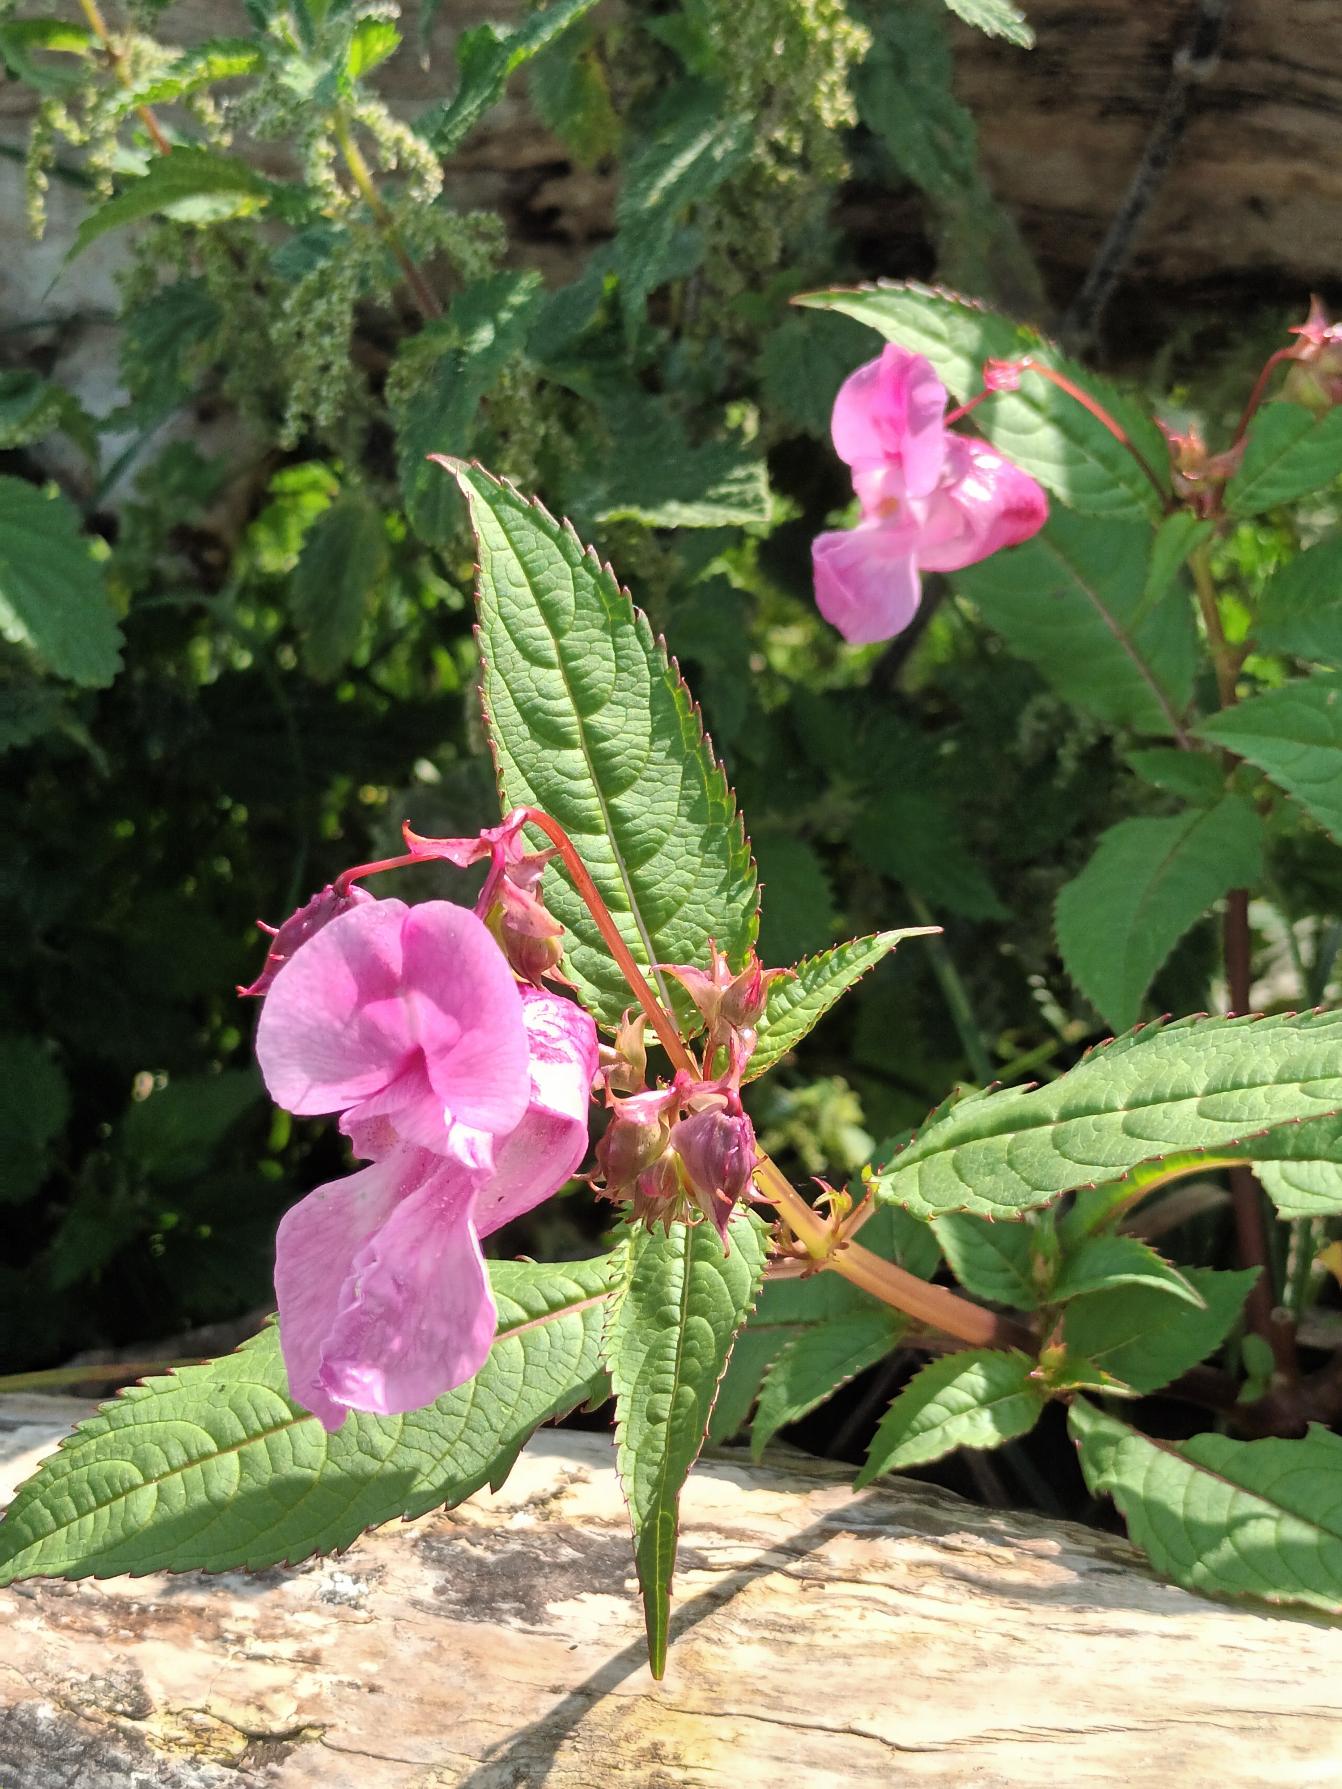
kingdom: Plantae
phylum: Tracheophyta
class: Magnoliopsida
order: Ericales
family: Balsaminaceae
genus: Impatiens
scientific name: Impatiens glandulifera
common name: Kæmpe-balsamin
